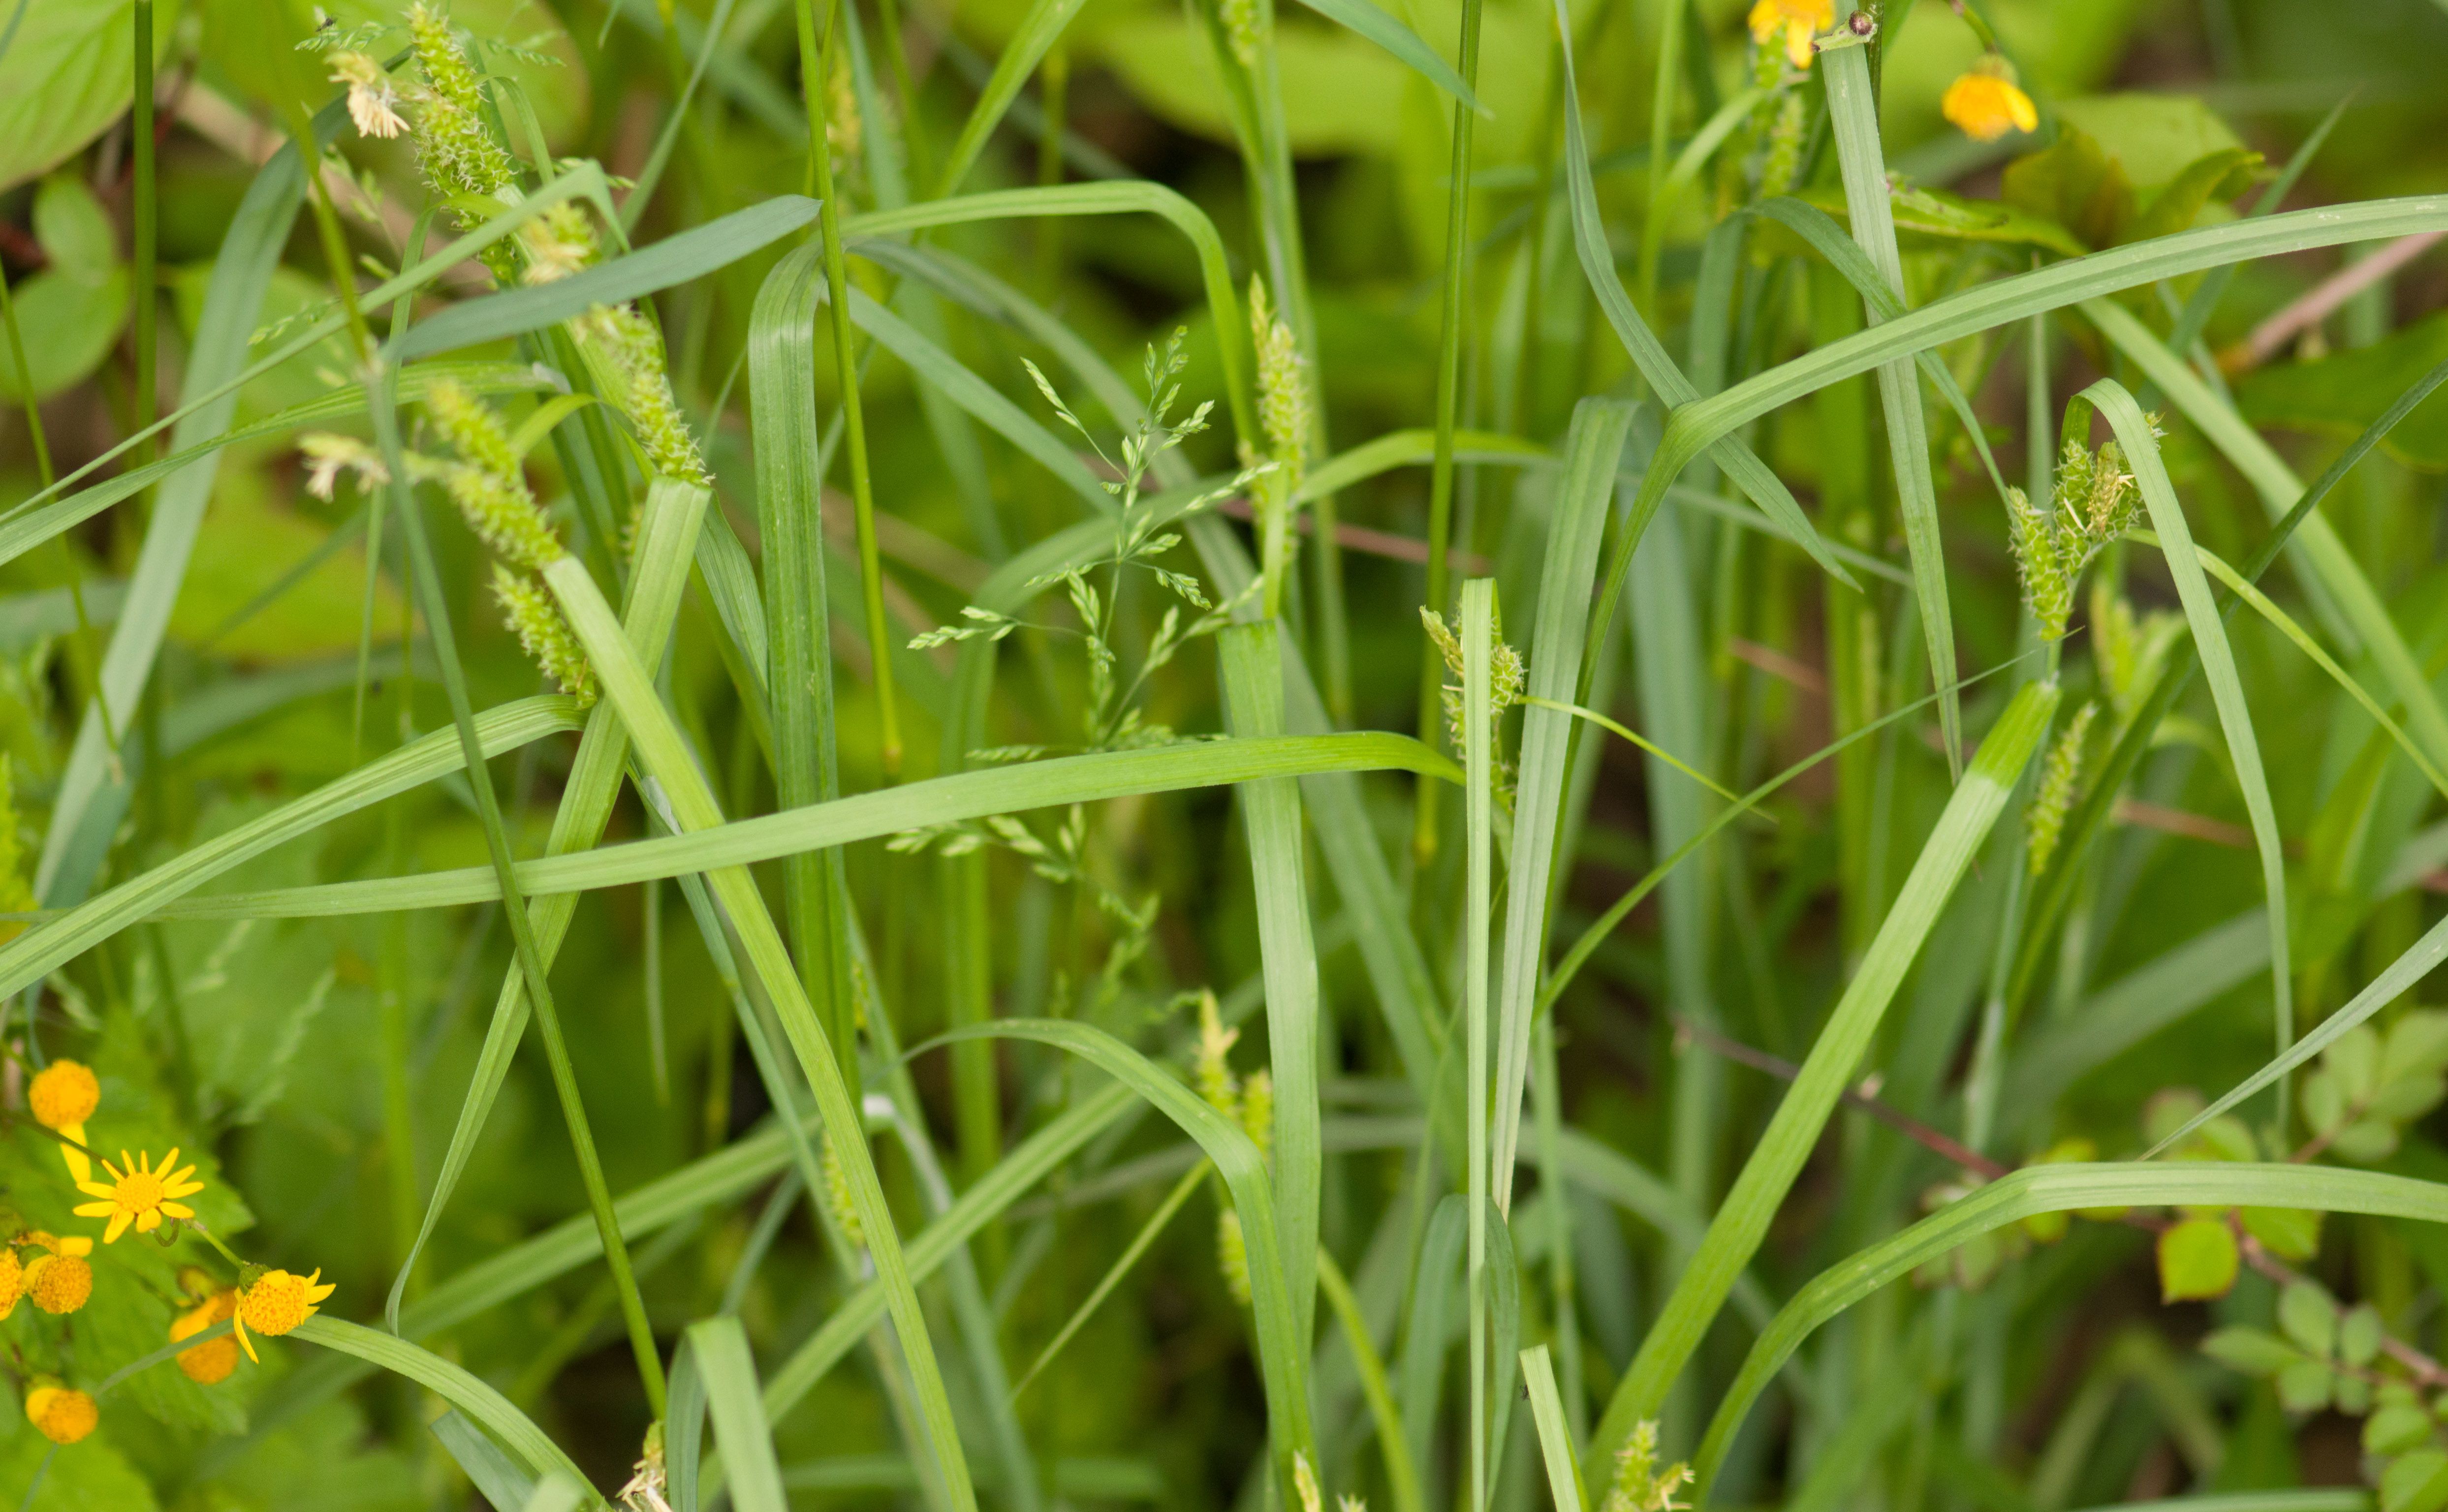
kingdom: Plantae
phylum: Tracheophyta
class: Liliopsida
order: Poales
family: Cyperaceae
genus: Carex
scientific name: Carex granularis
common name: Granular sedge
